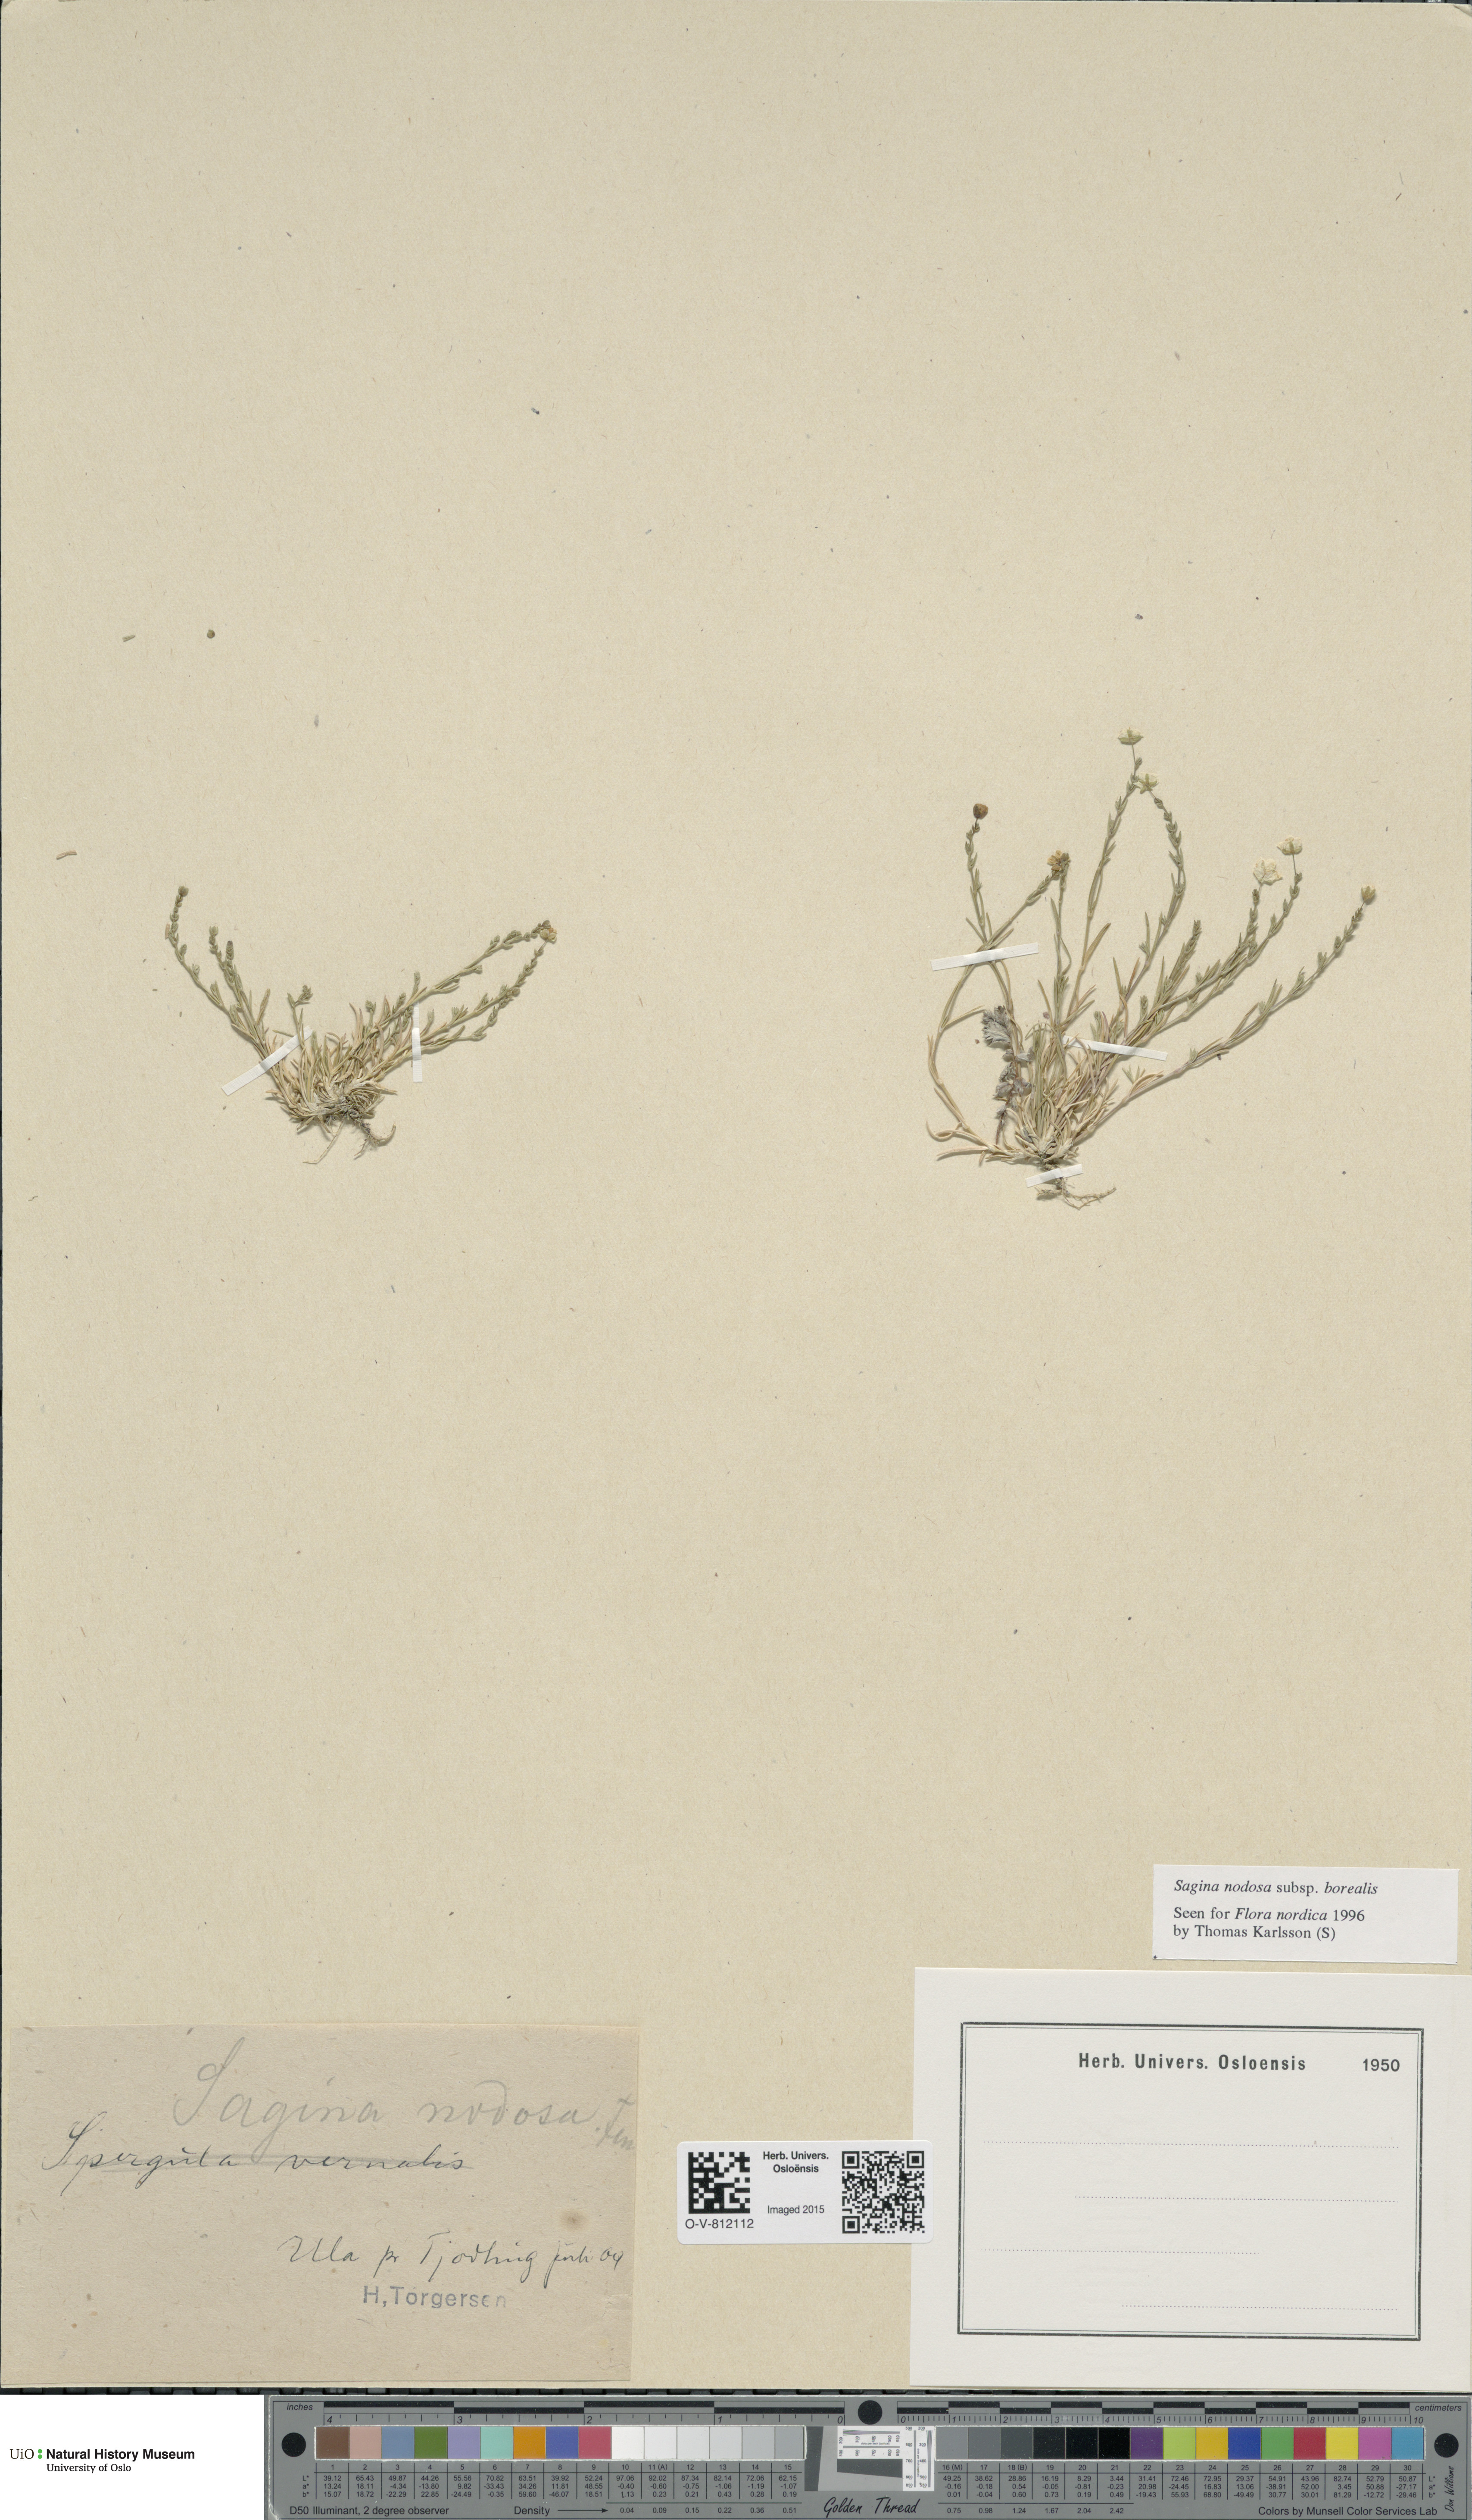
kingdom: Plantae
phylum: Tracheophyta
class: Magnoliopsida
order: Caryophyllales
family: Caryophyllaceae
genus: Sagina
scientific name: Sagina nodosa
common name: Knotted pearlwort
